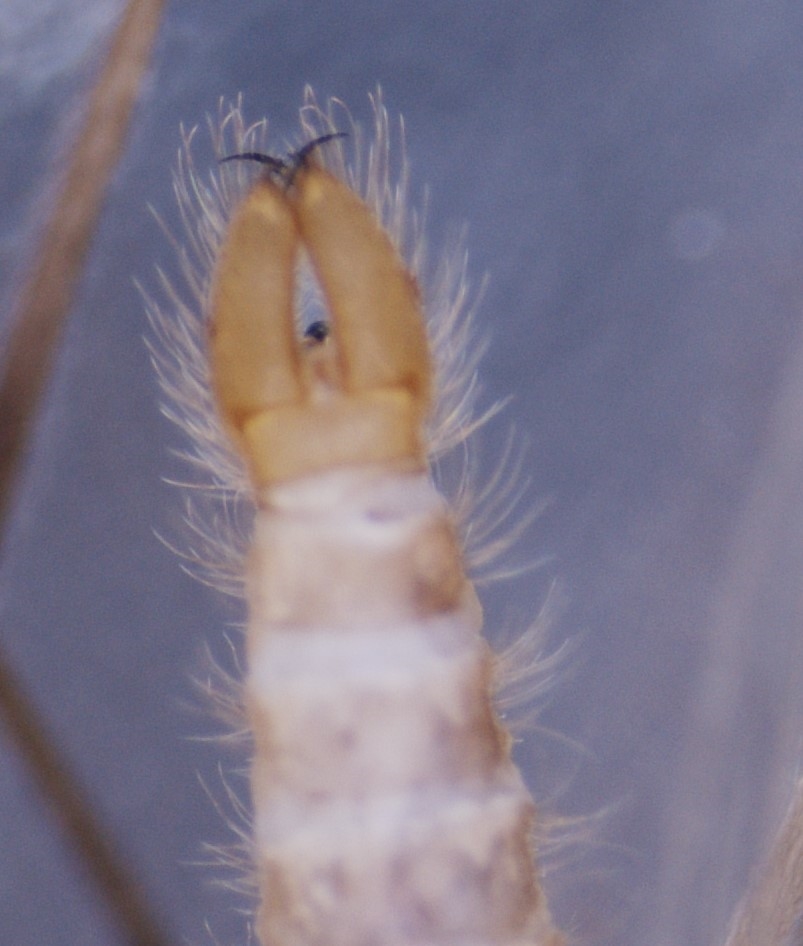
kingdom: Animalia
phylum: Arthropoda
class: Insecta
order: Diptera
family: Limoniidae
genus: Molophilus
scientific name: Molophilus corniger
